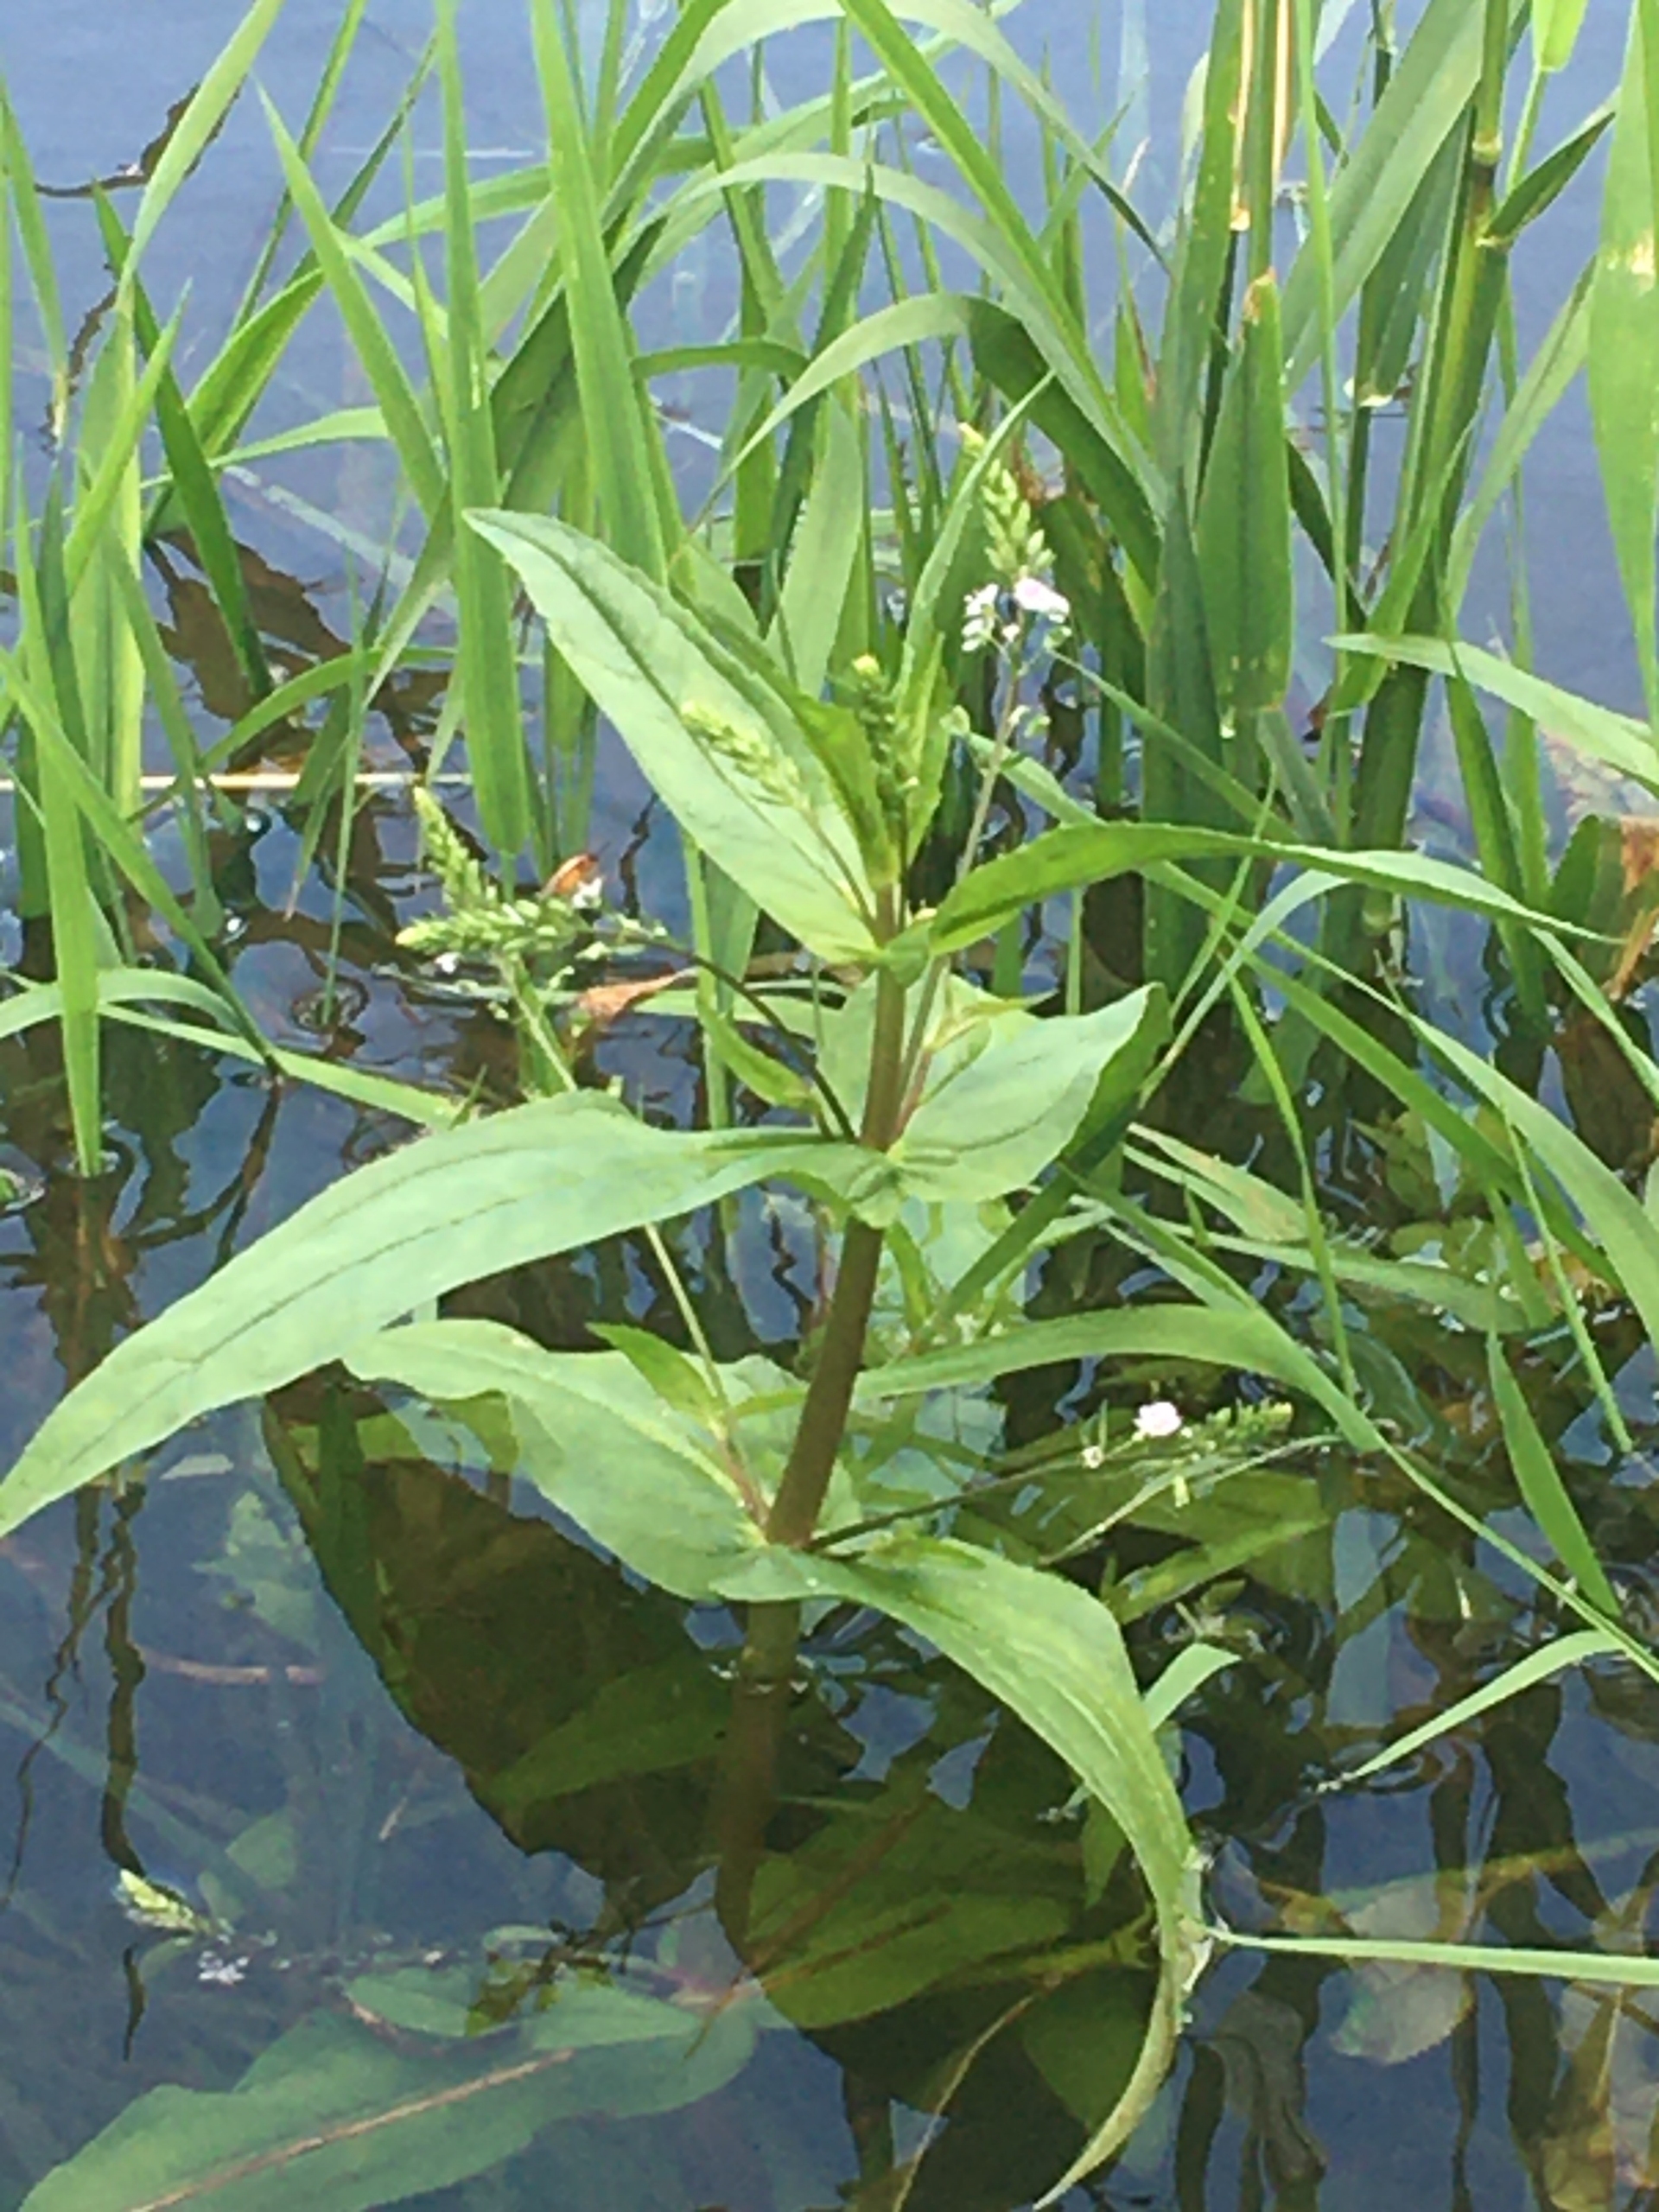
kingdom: Plantae
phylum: Tracheophyta
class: Magnoliopsida
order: Lamiales
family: Plantaginaceae
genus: Veronica
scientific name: Veronica anagallis-aquatica
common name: Lancetbladet ærenpris
